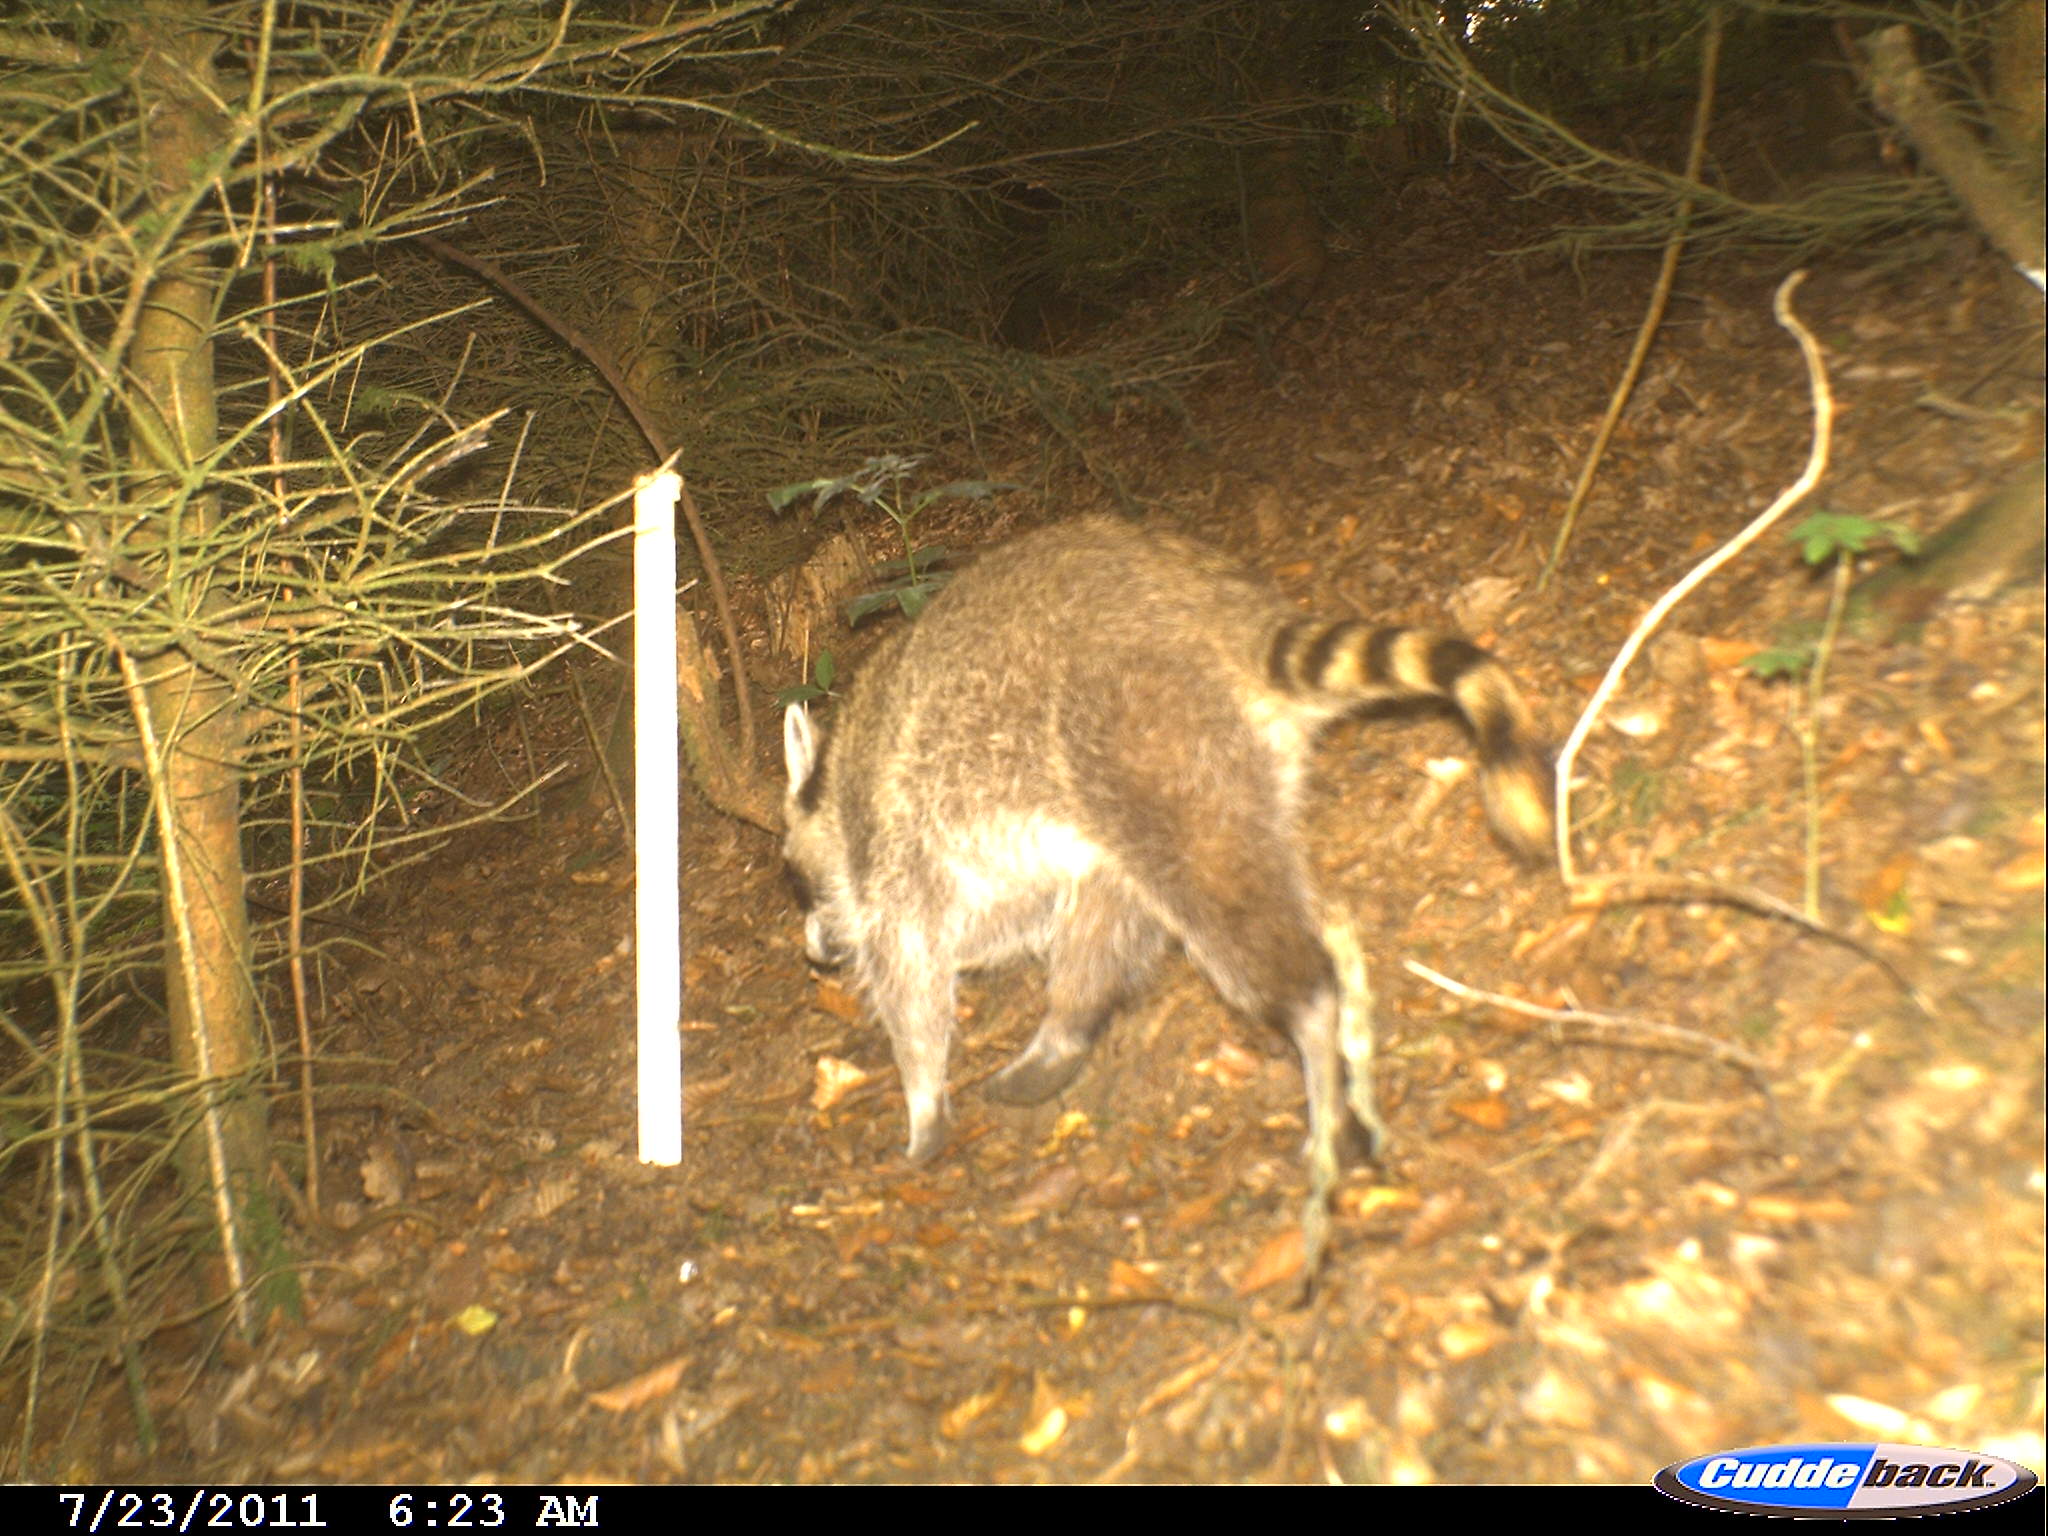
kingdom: Animalia
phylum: Chordata
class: Mammalia
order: Carnivora
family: Procyonidae
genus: Procyon
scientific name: Procyon lotor
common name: Raccoon
